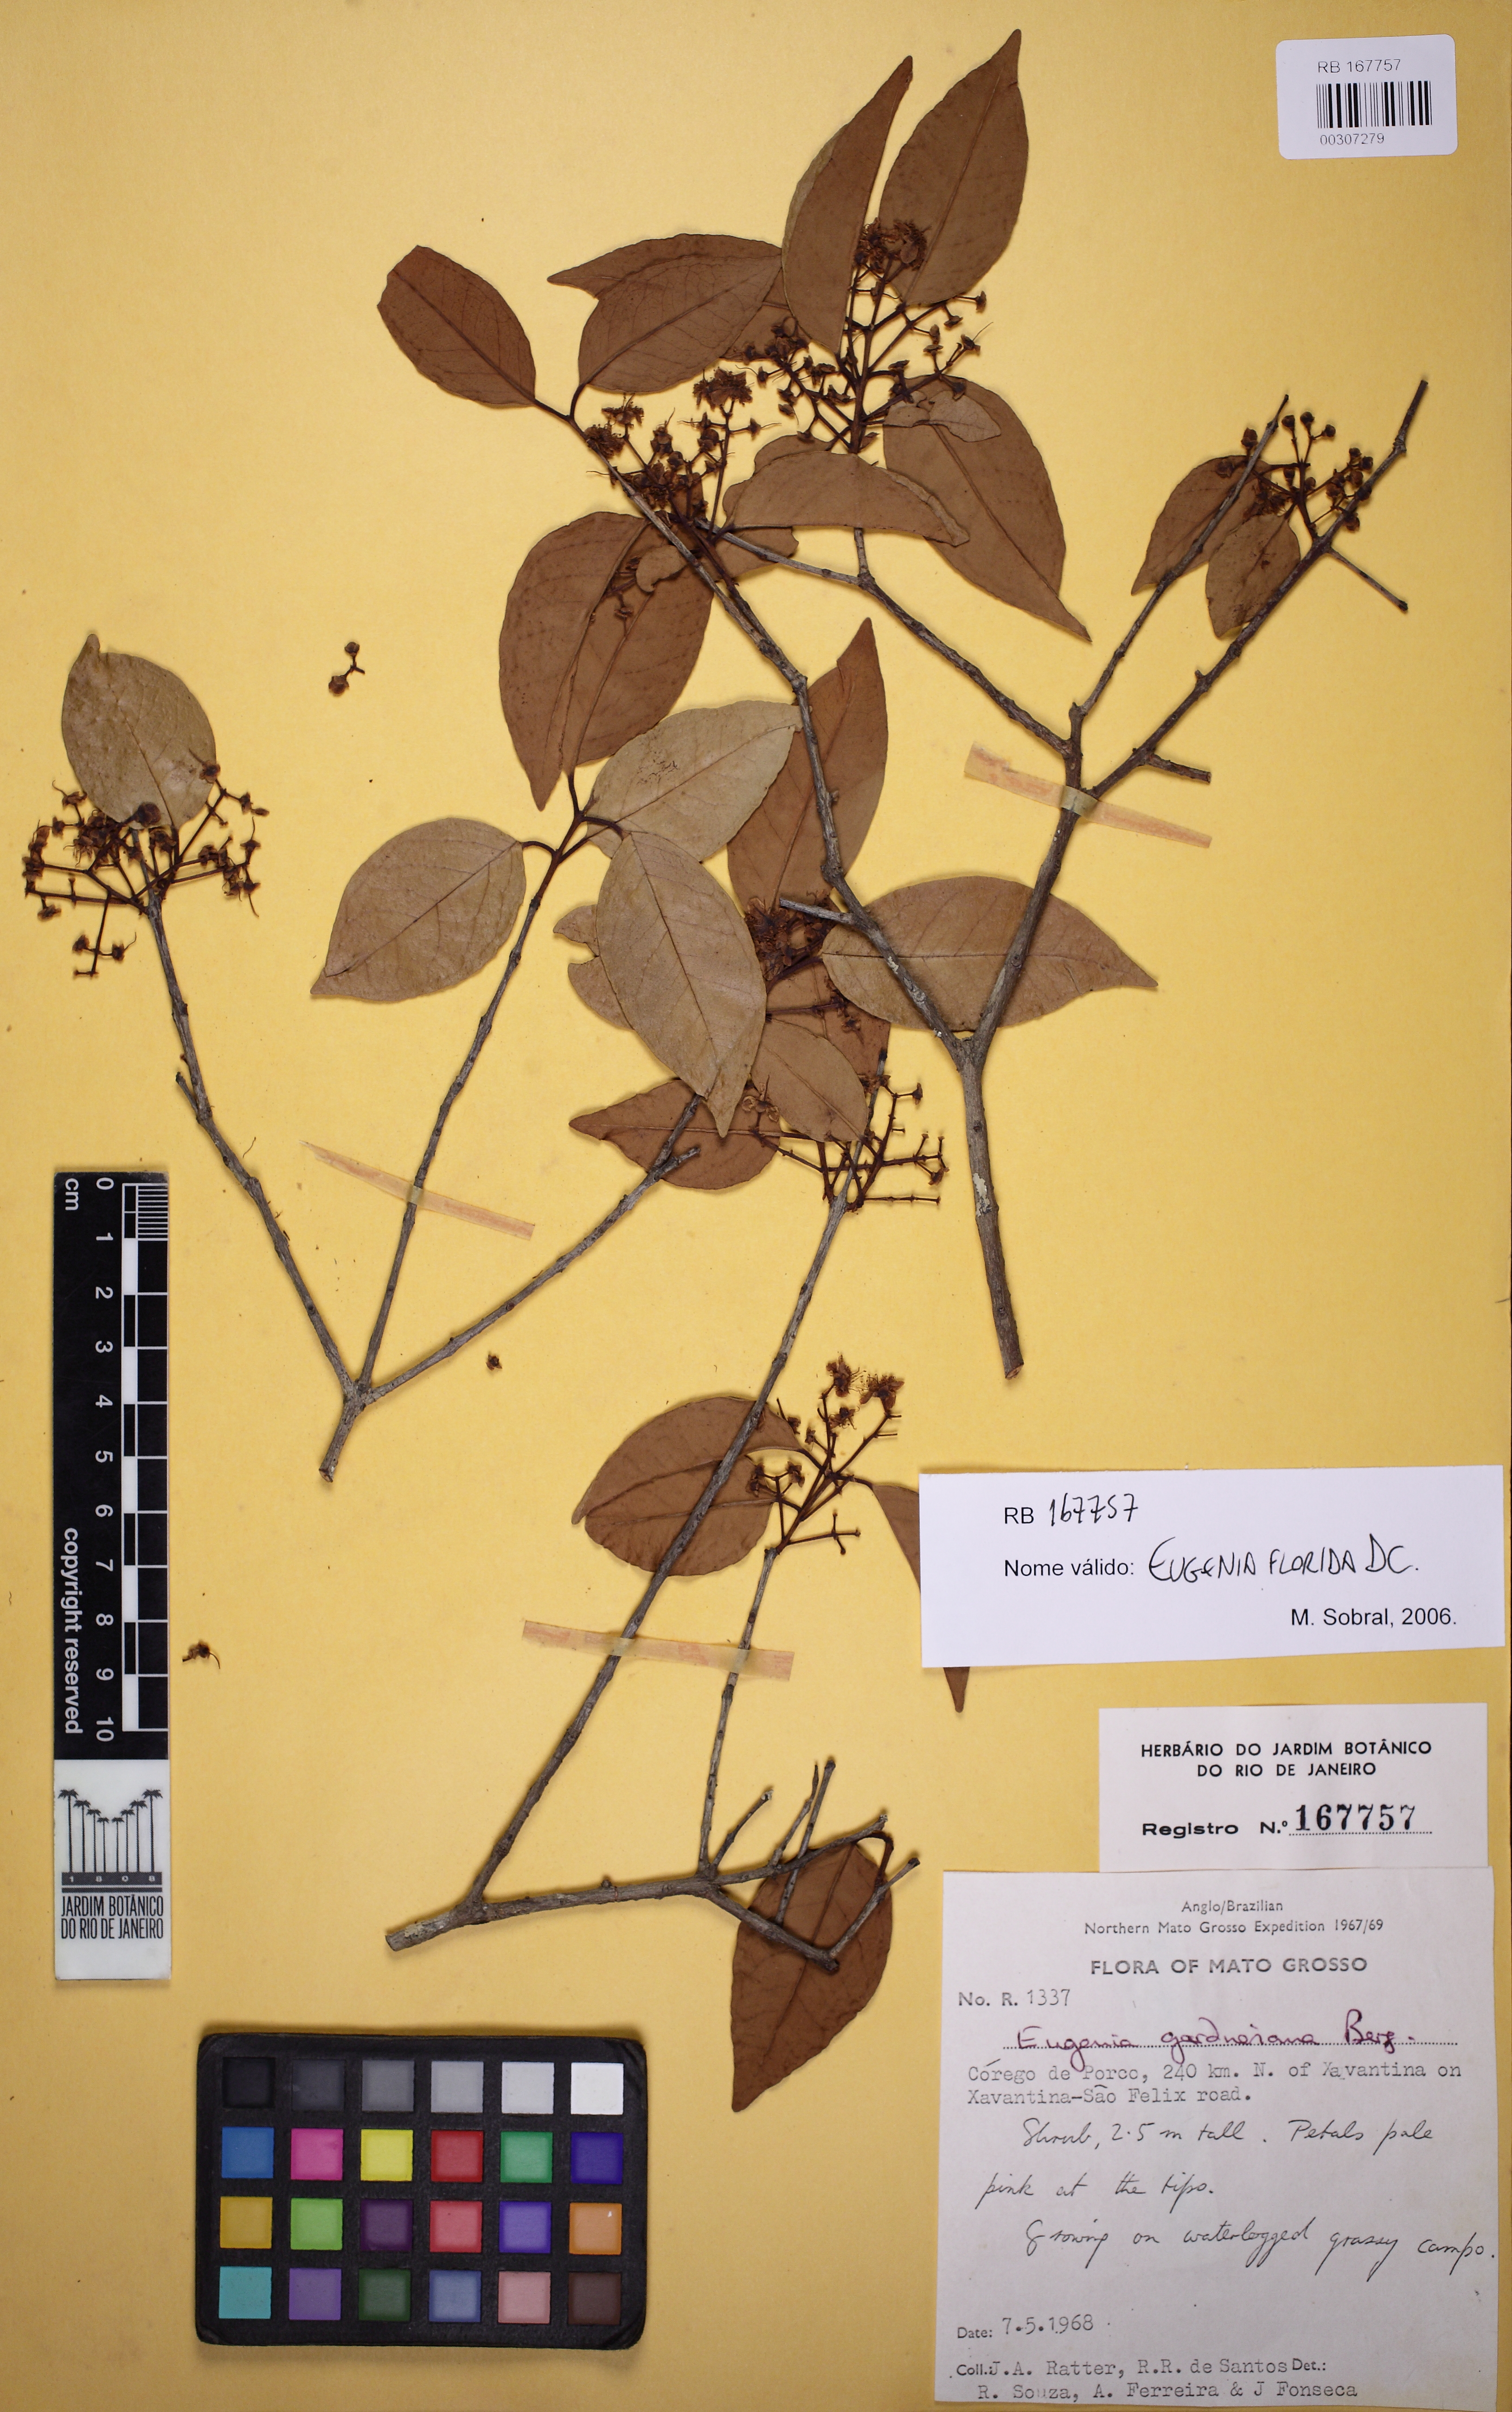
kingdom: Plantae
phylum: Tracheophyta
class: Magnoliopsida
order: Myrtales
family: Myrtaceae
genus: Eugenia
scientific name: Eugenia florida
